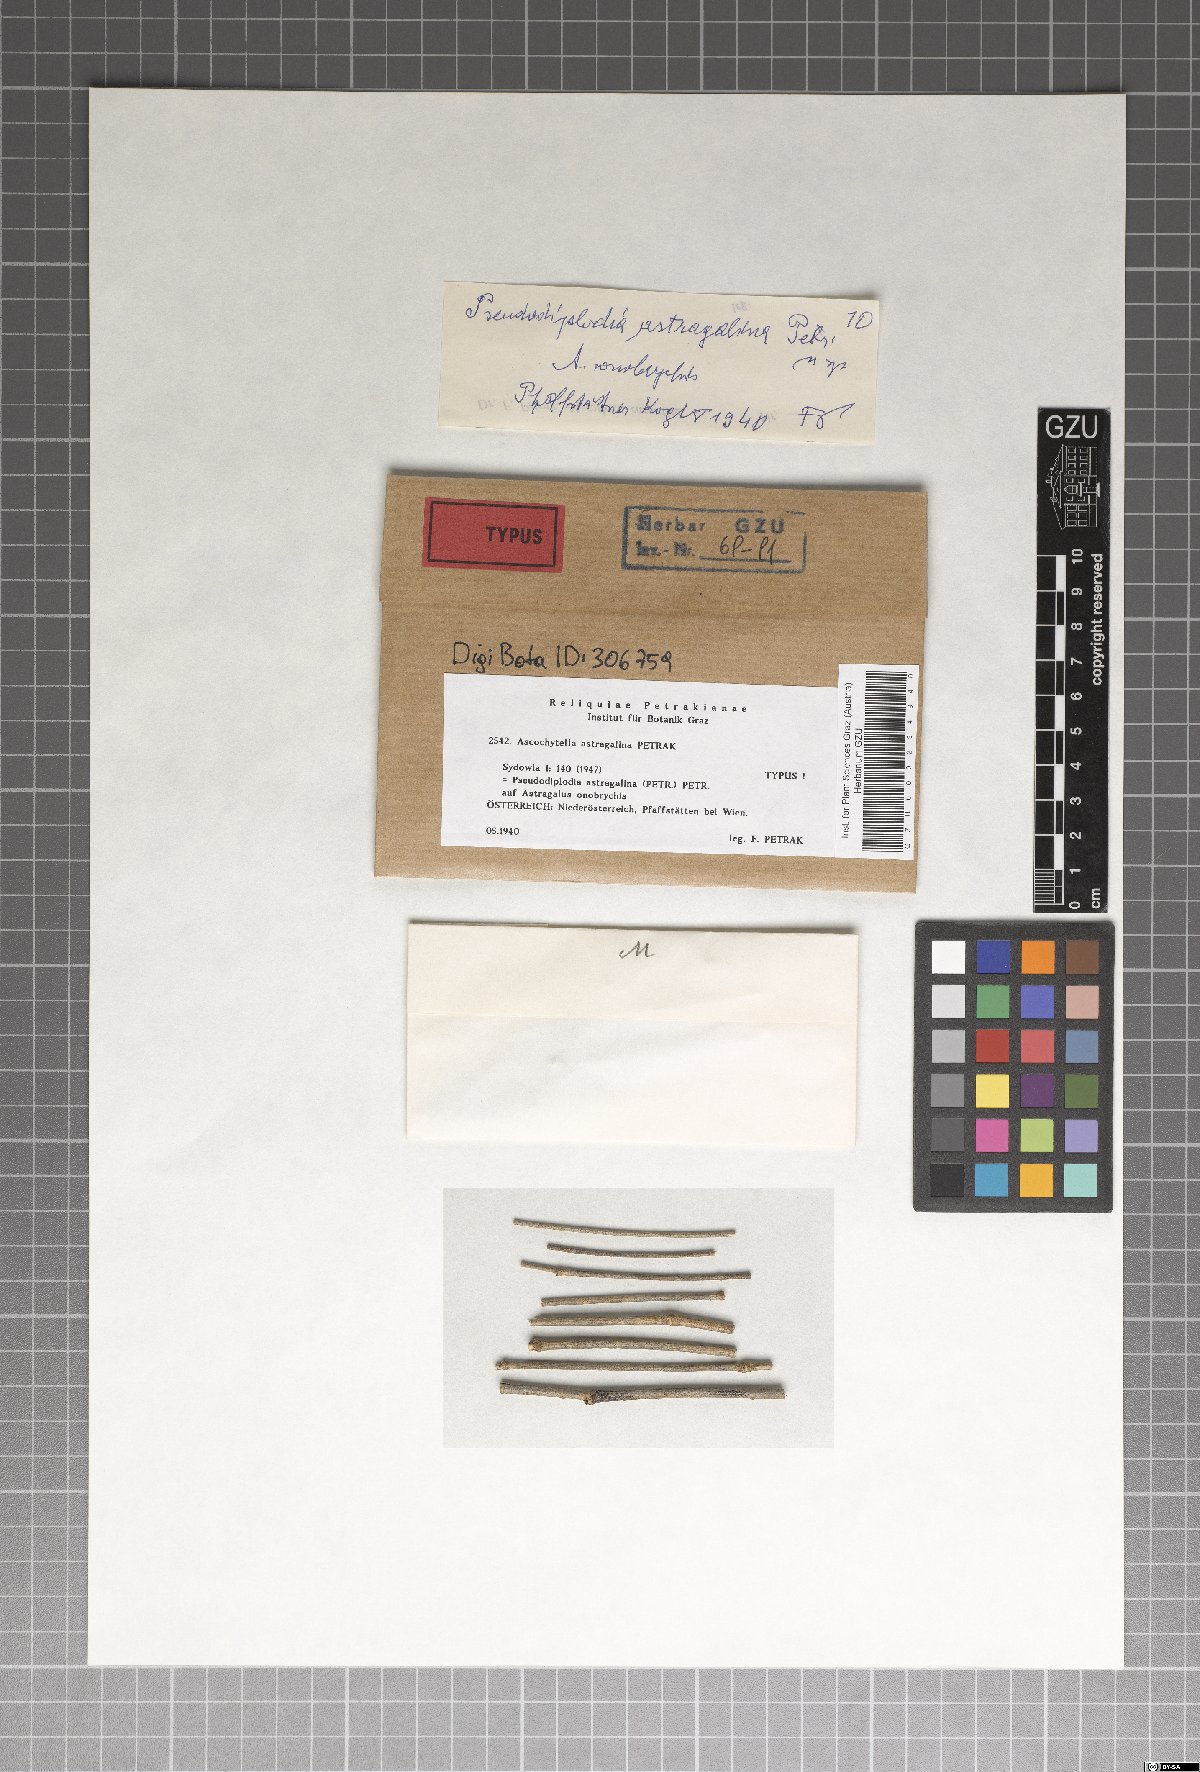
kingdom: Fungi
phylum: Ascomycota
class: Dothideomycetes
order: Pleosporales
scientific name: Pleosporales
